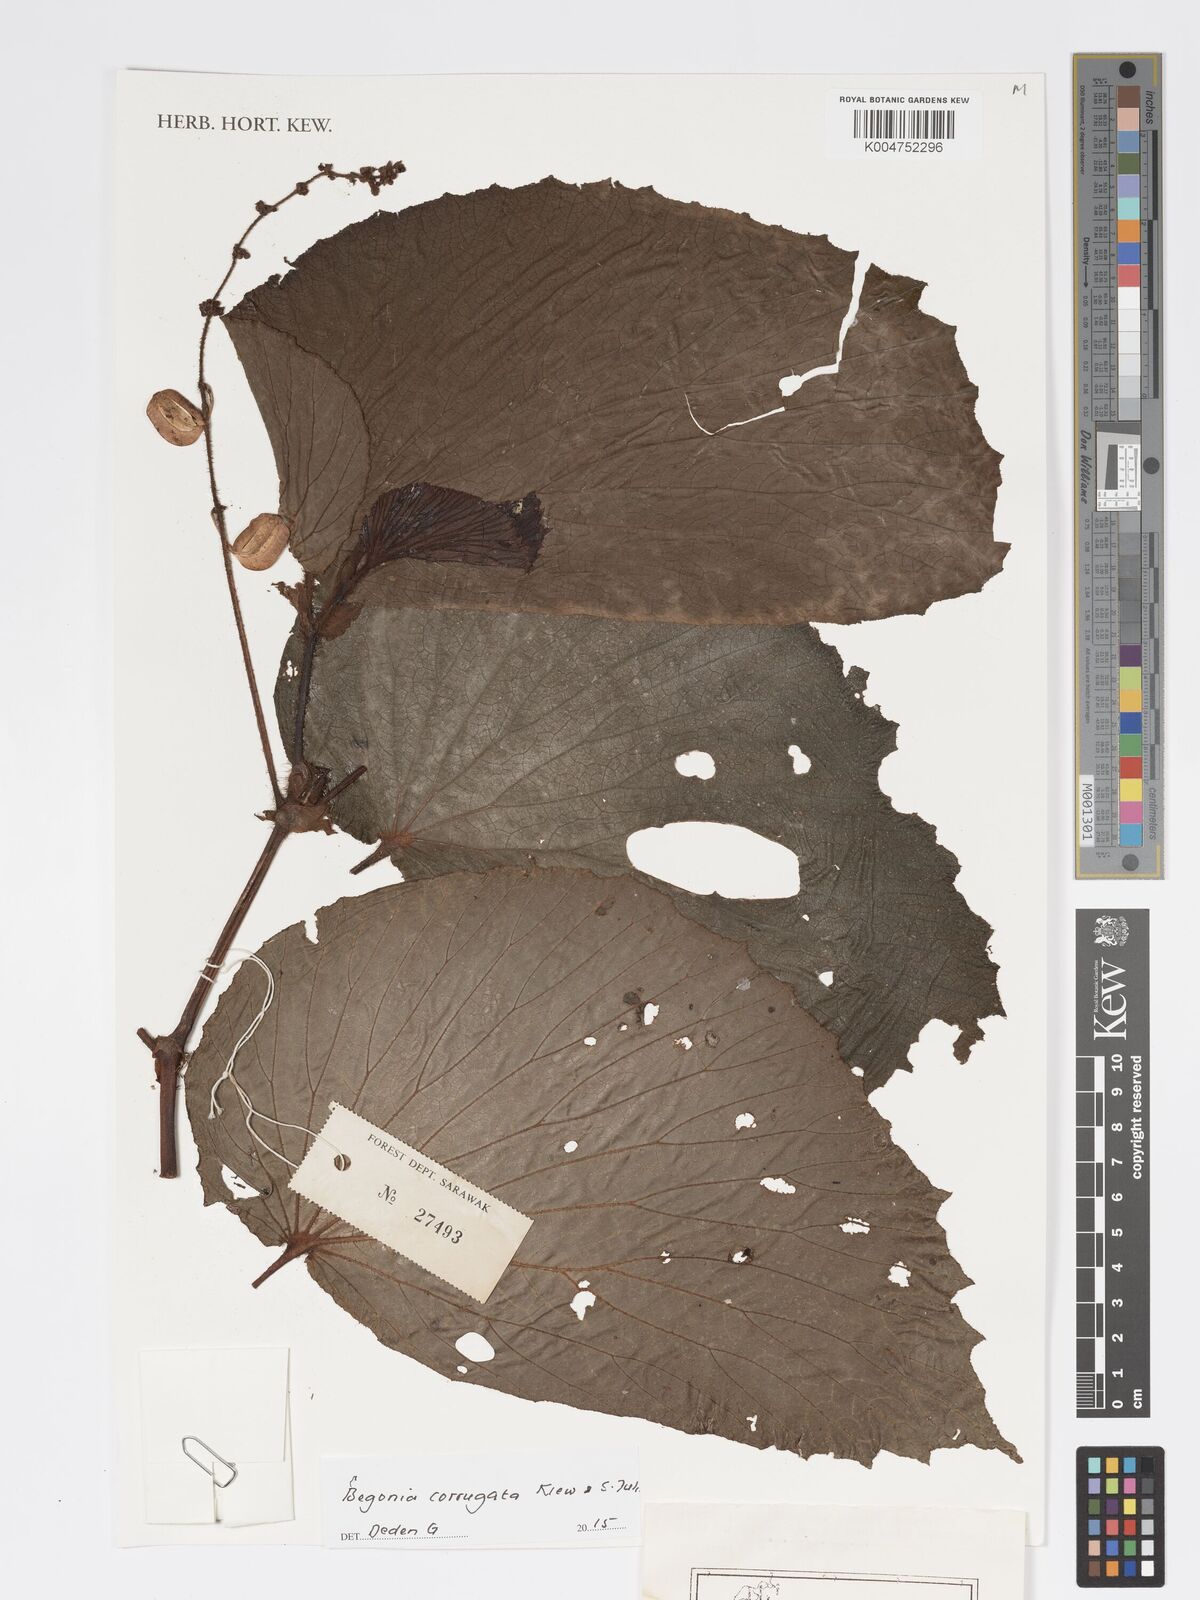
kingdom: Plantae
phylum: Tracheophyta
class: Magnoliopsida
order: Cucurbitales
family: Begoniaceae
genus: Begonia
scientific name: Begonia corrugata
